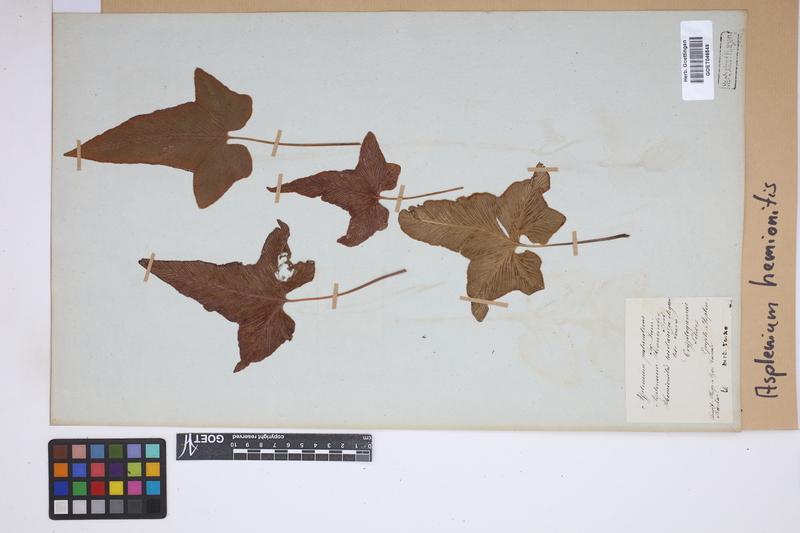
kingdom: Plantae
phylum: Tracheophyta
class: Polypodiopsida
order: Polypodiales
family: Aspleniaceae
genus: Asplenium
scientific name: Asplenium hemionitis
